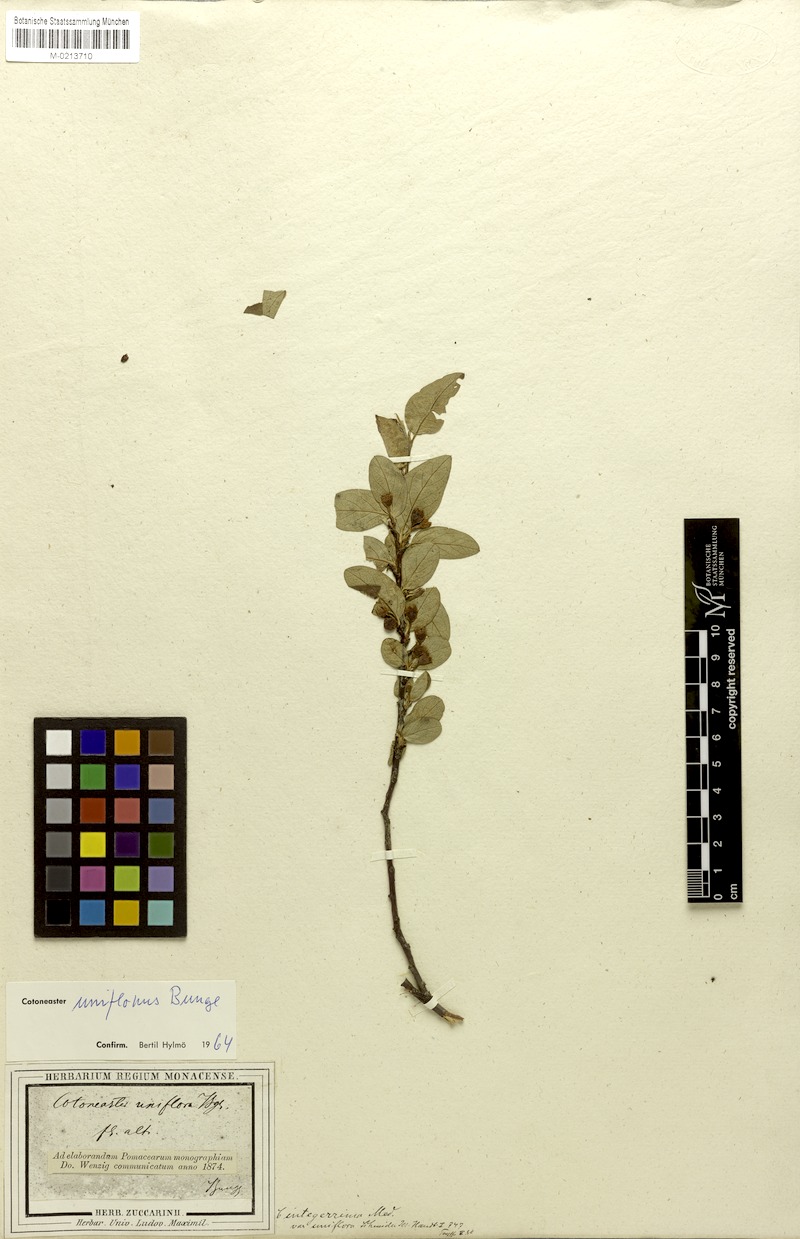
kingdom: Plantae
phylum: Tracheophyta
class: Magnoliopsida
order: Rosales
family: Rosaceae
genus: Cotoneaster
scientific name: Cotoneaster uniflorus
